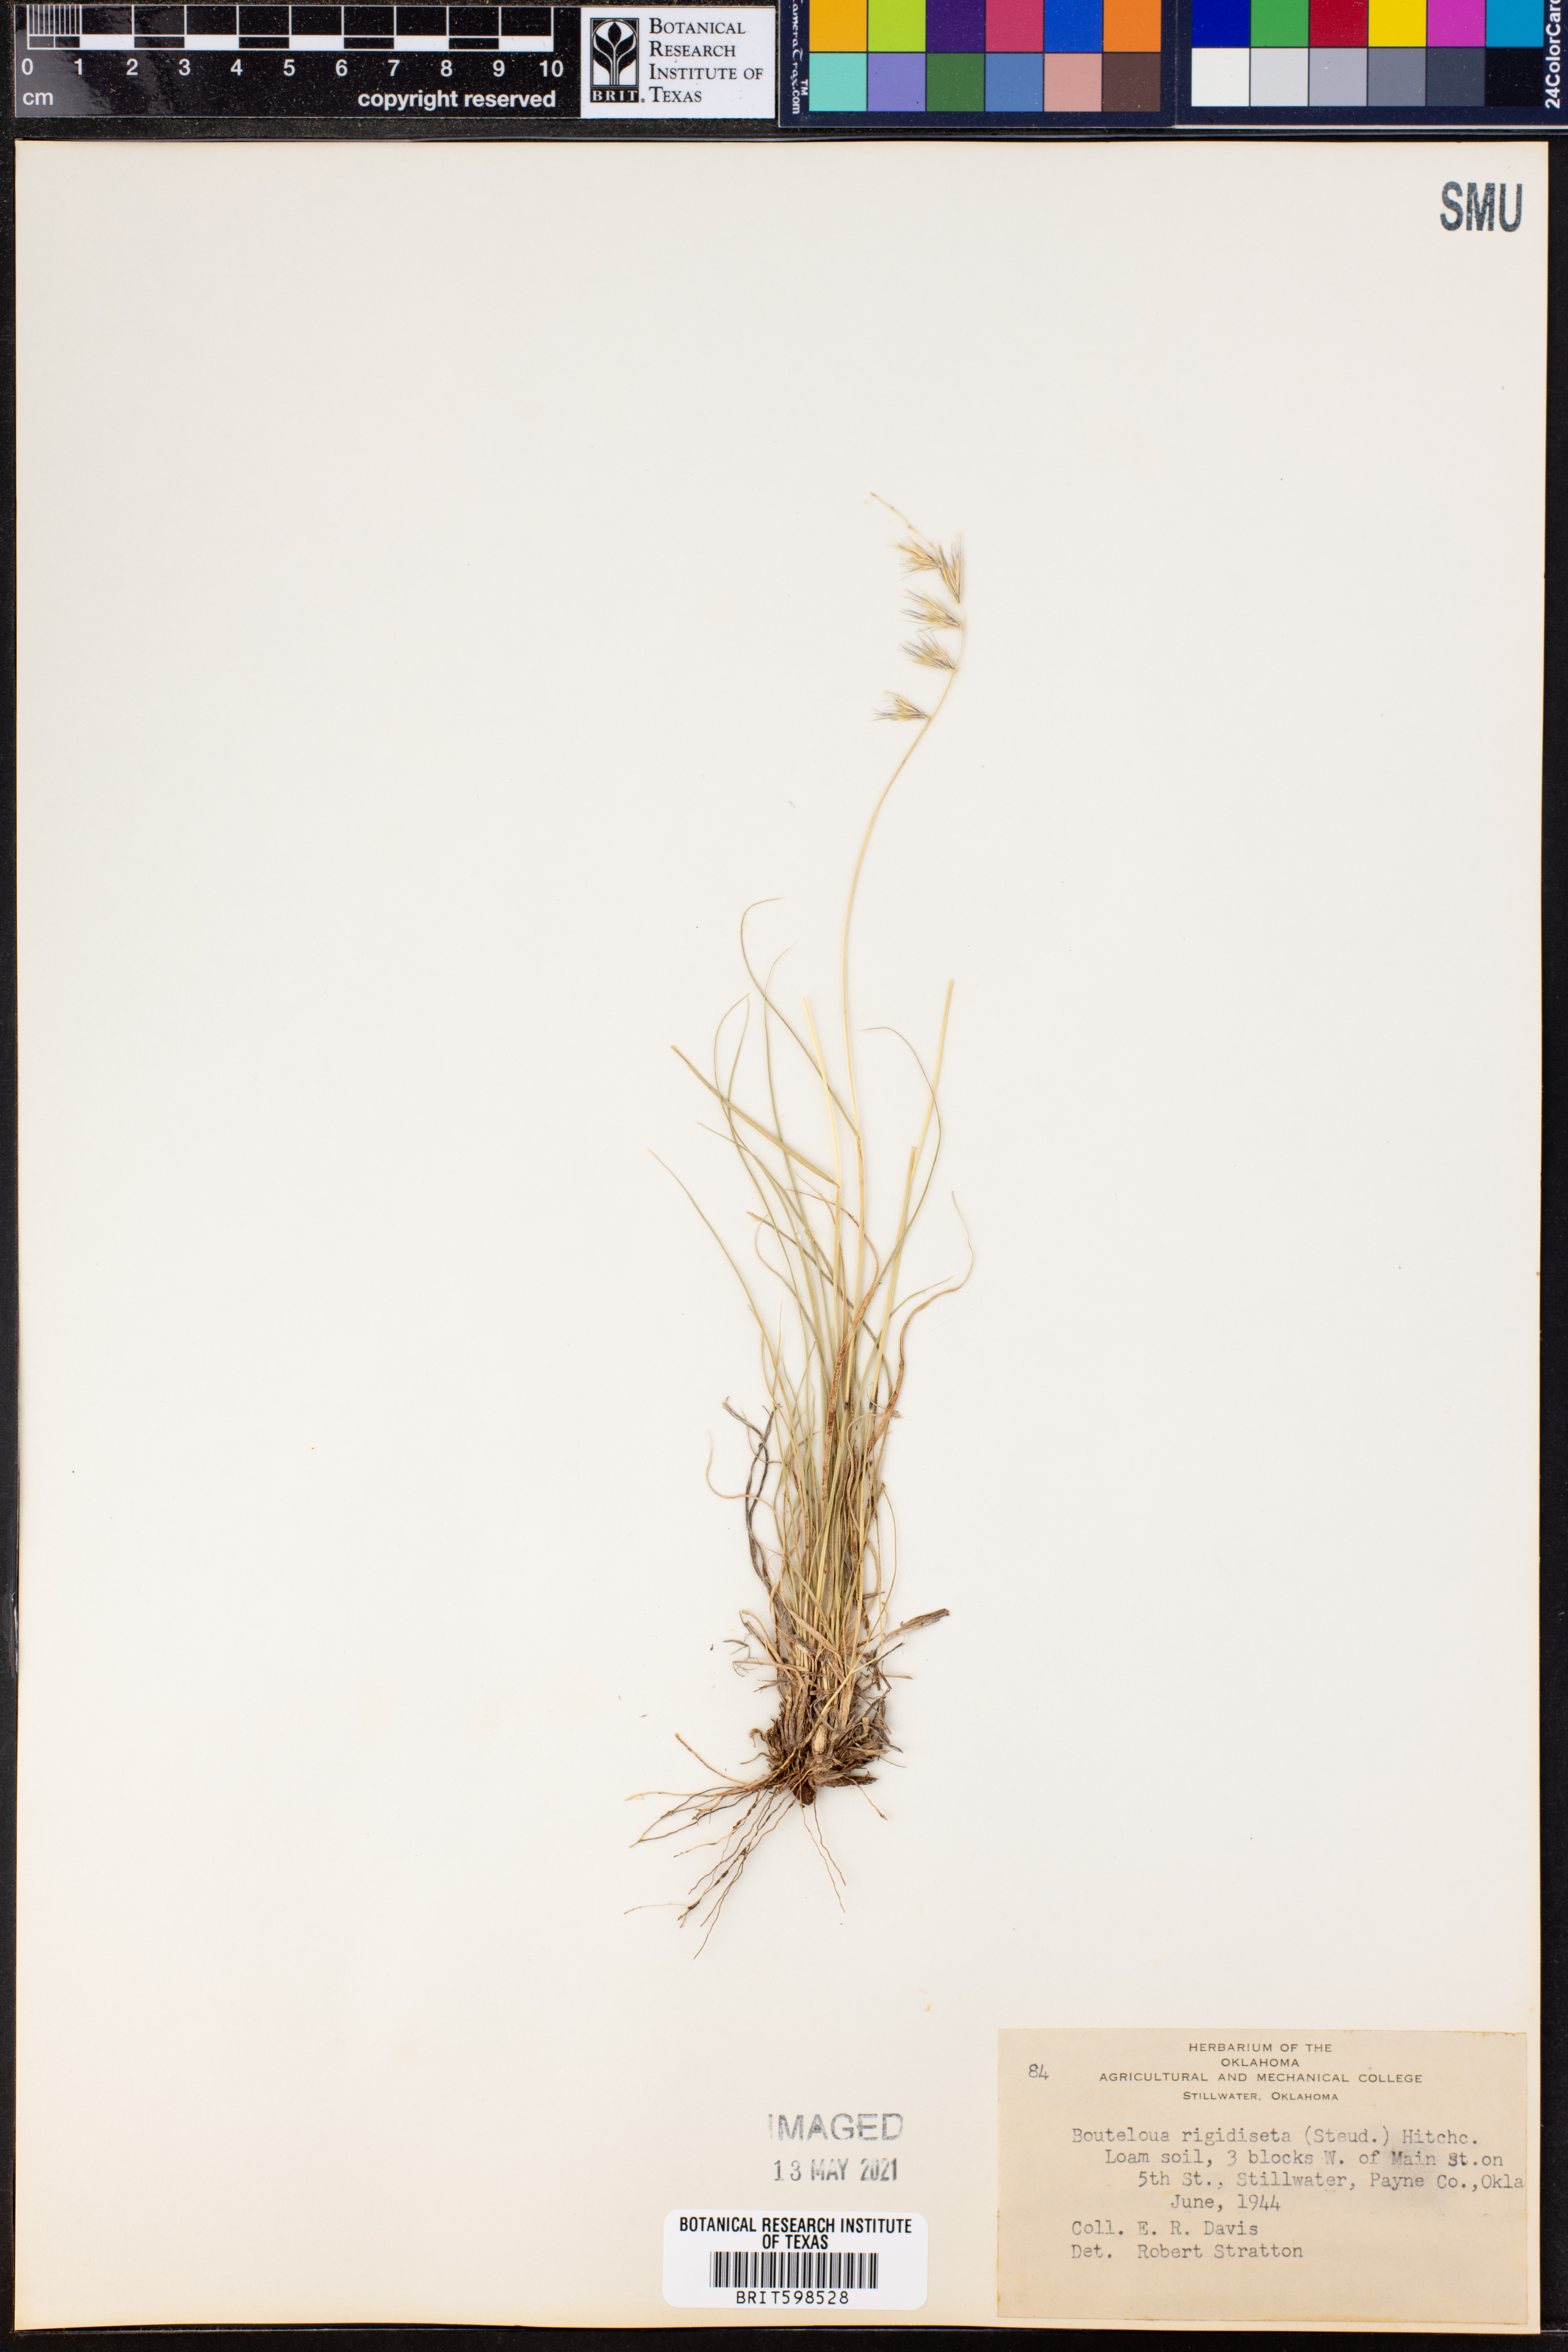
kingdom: Plantae
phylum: Tracheophyta
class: Liliopsida
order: Poales
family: Poaceae
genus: Bouteloua
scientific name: Bouteloua rigidiseta
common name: Texas grama
